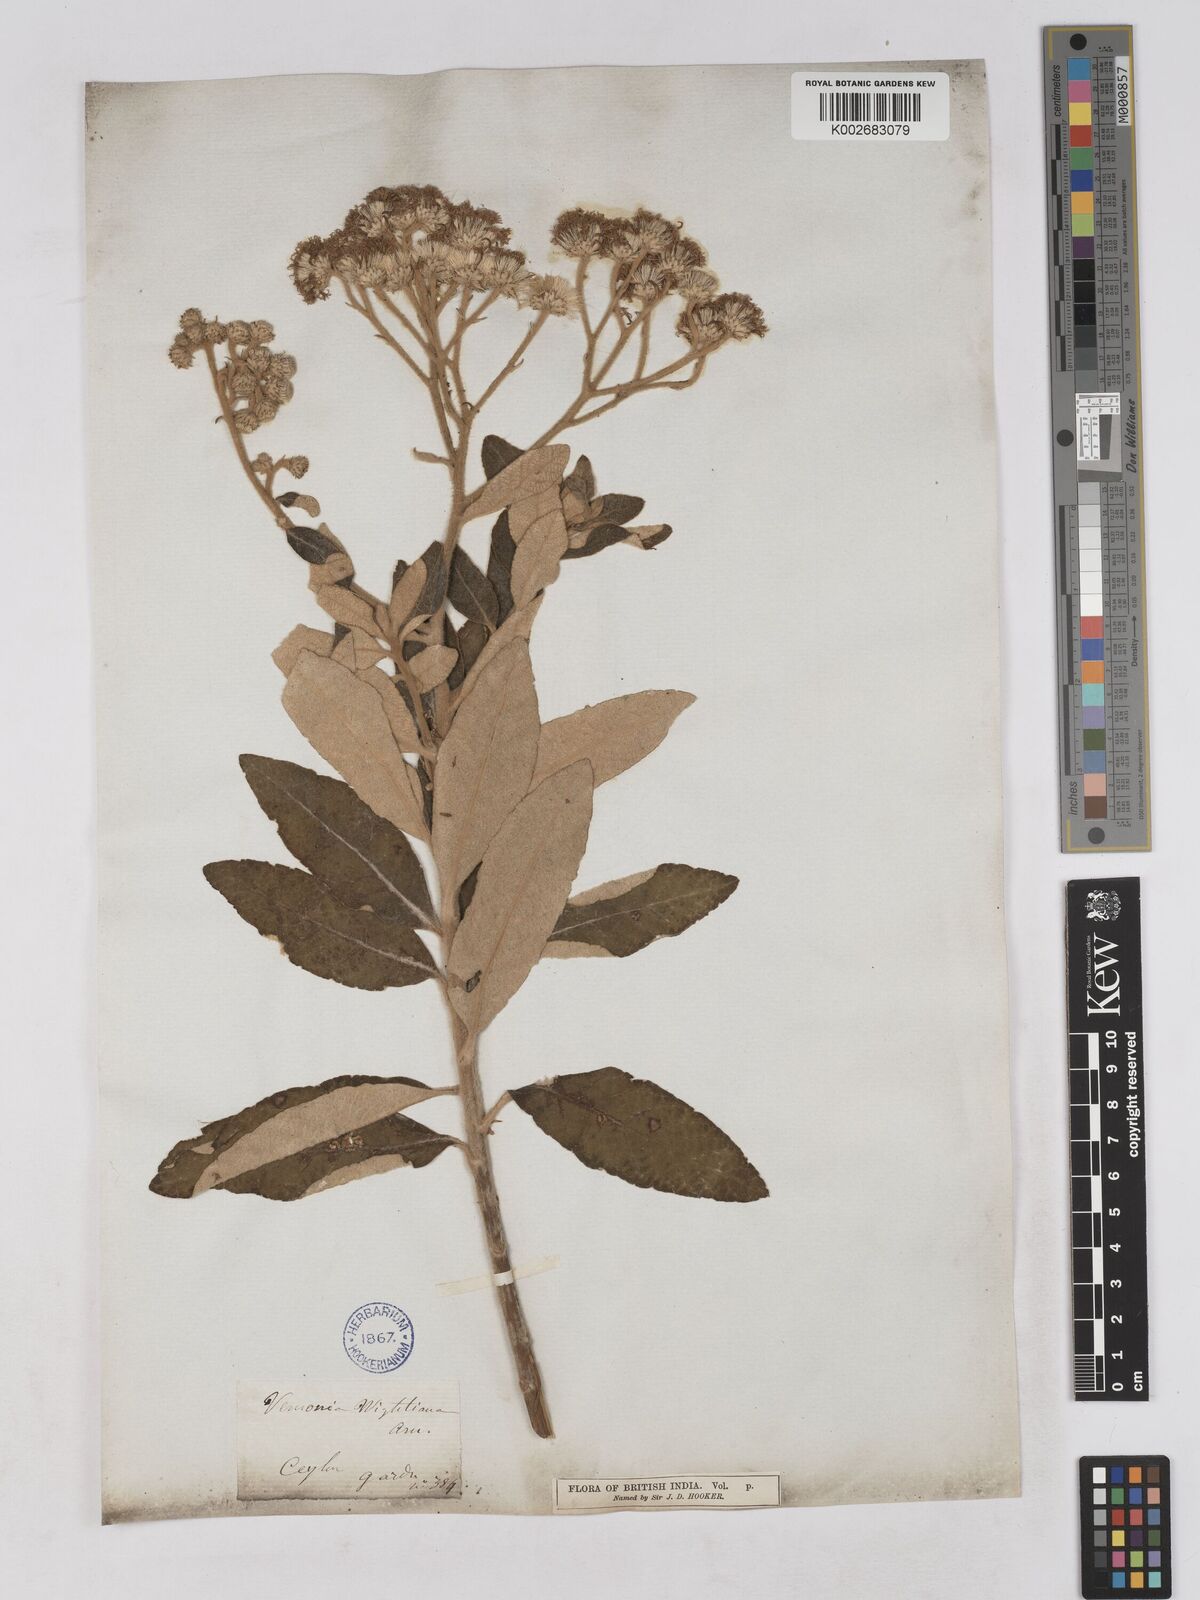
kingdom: Plantae
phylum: Tracheophyta
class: Magnoliopsida
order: Asterales
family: Asteraceae
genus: Uniyala
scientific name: Uniyala wightiana
